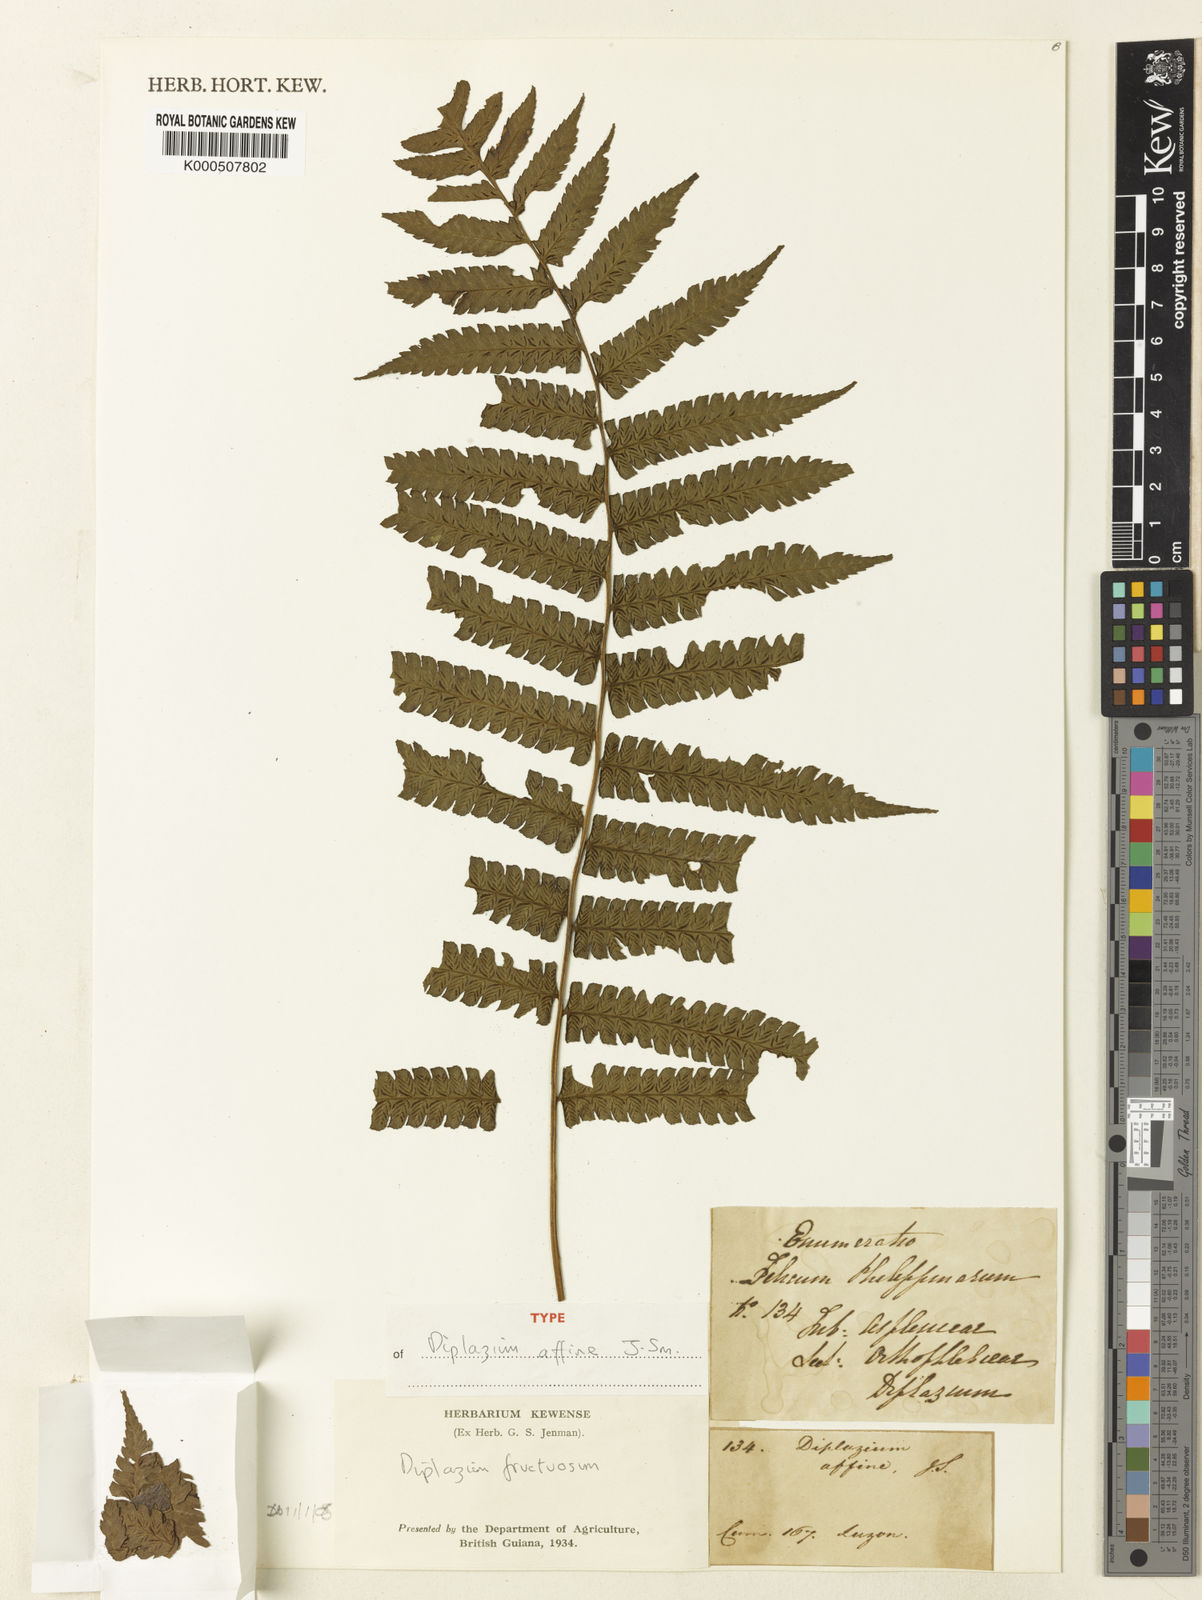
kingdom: Plantae
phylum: Tracheophyta
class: Polypodiopsida
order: Polypodiales
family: Athyriaceae
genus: Diplazium
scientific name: Diplazium fructuosum
